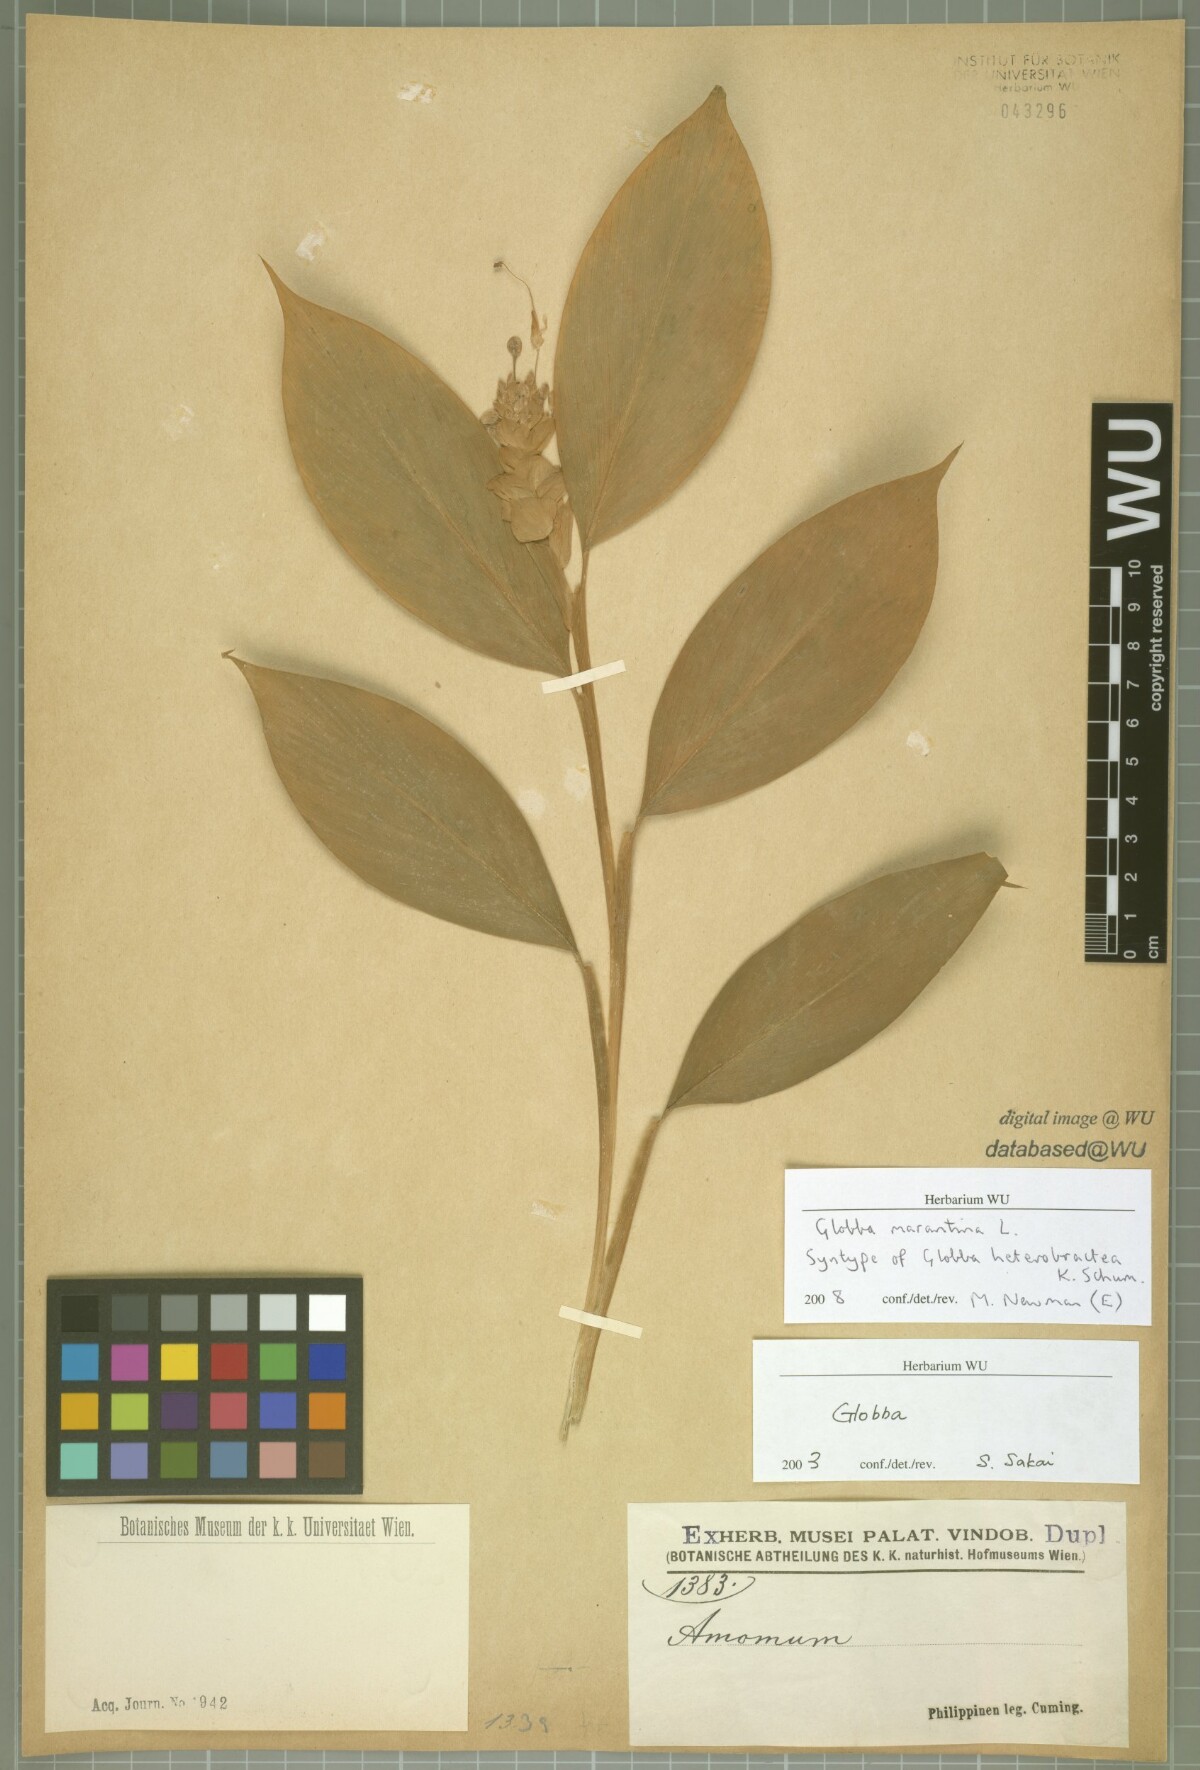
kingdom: Plantae
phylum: Tracheophyta
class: Liliopsida
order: Zingiberales
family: Zingiberaceae
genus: Globba
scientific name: Globba marantina
